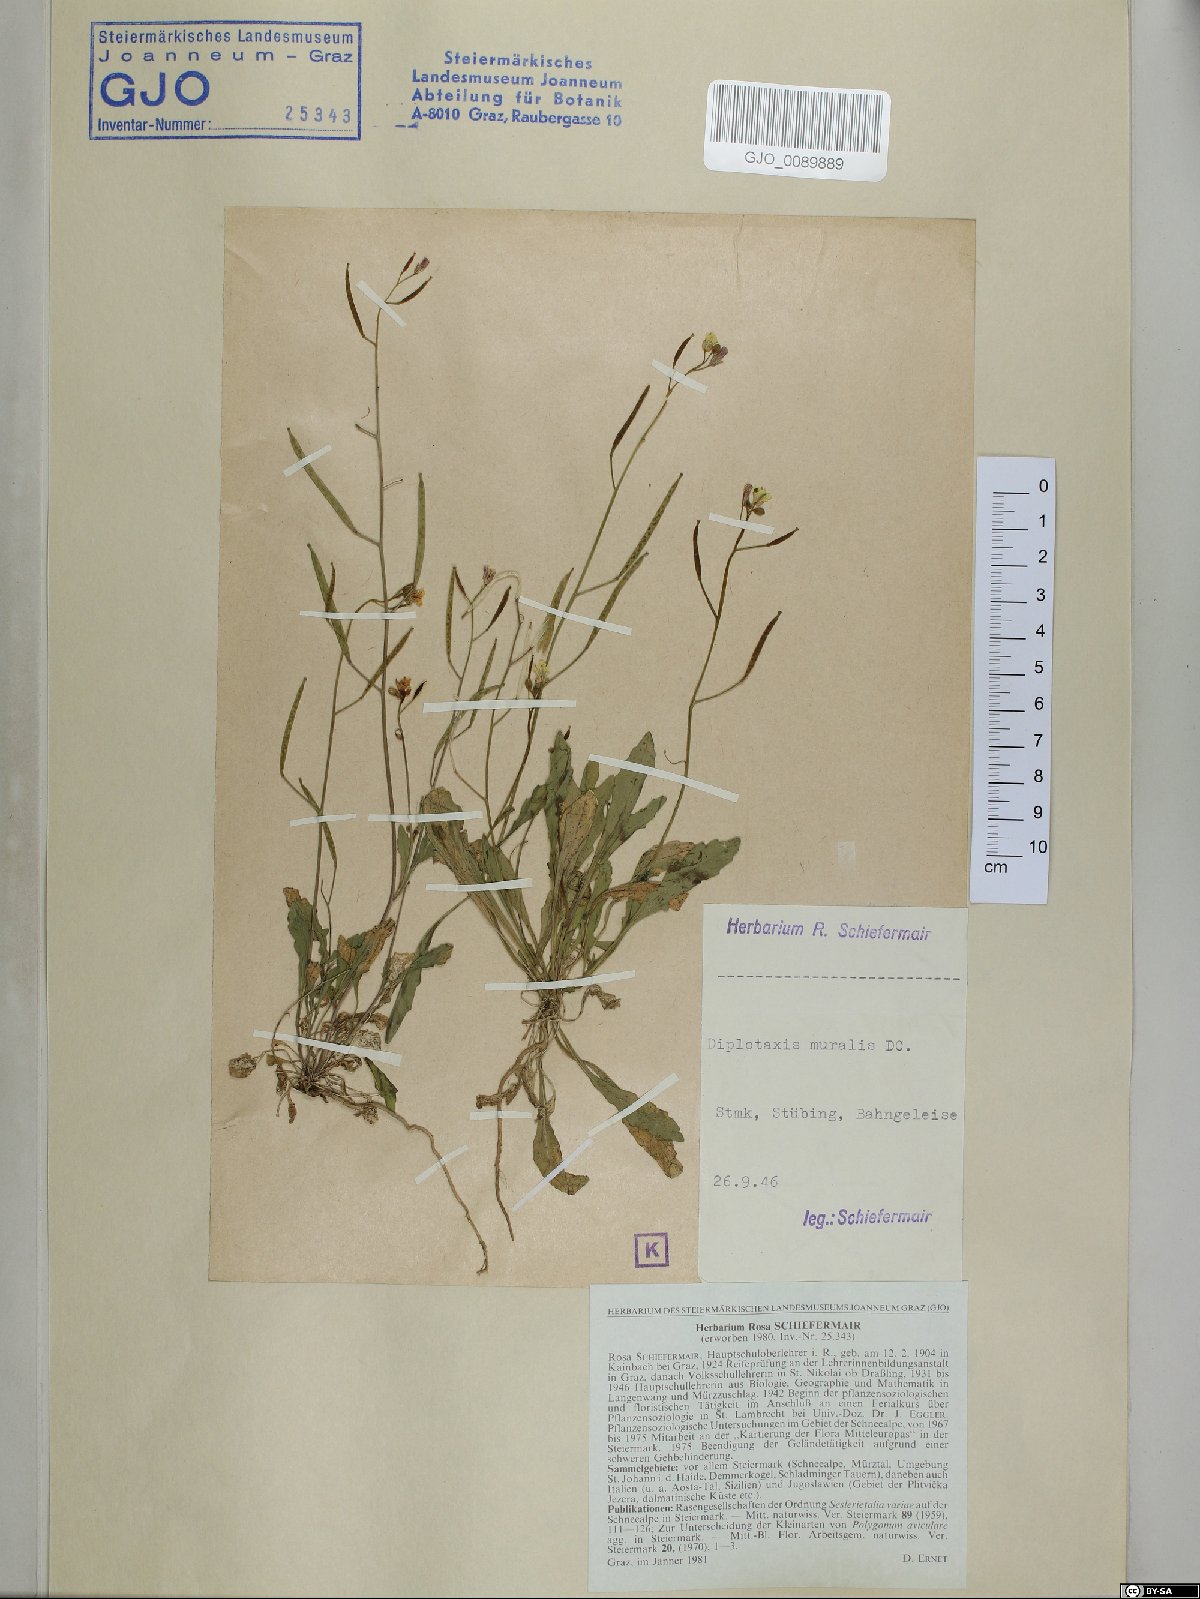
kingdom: Plantae
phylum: Tracheophyta
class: Magnoliopsida
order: Brassicales
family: Brassicaceae
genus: Diplotaxis
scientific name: Diplotaxis muralis
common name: Annual wall-rocket
